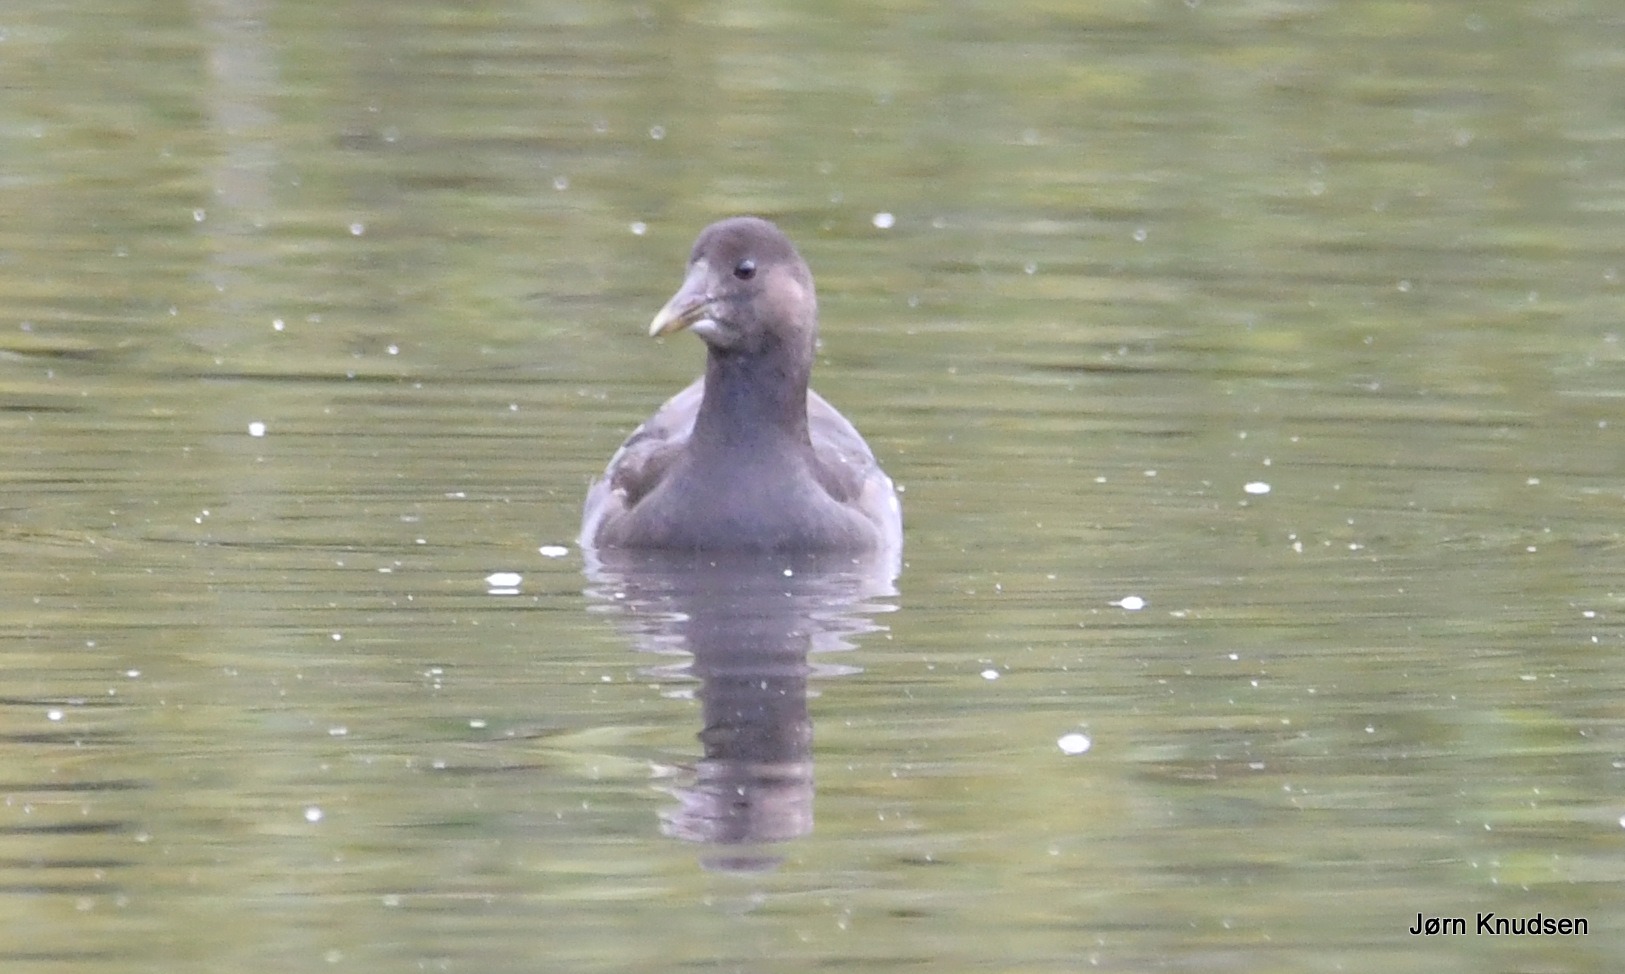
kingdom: Animalia
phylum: Chordata
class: Aves
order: Gruiformes
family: Rallidae
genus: Gallinula
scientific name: Gallinula chloropus
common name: Grønbenet rørhøne
